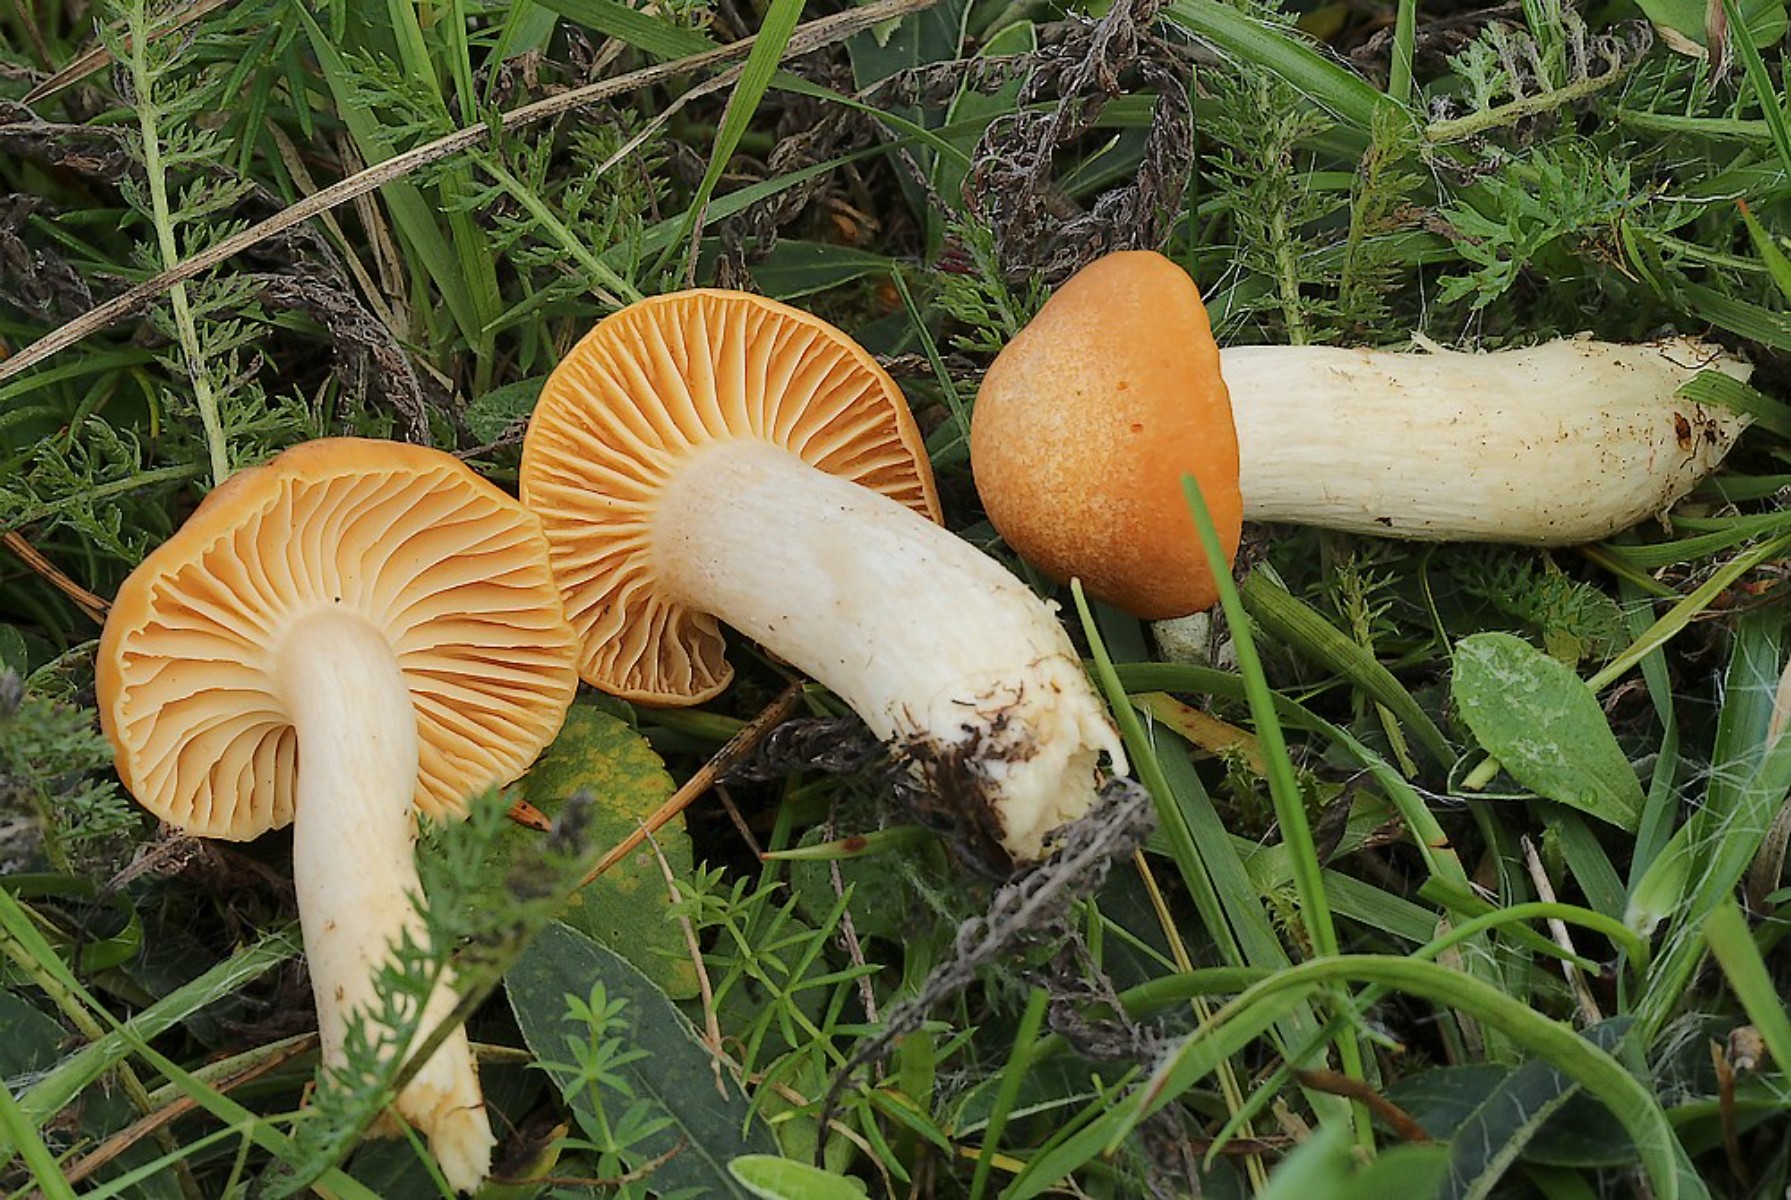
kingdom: Fungi
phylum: Basidiomycota
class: Agaricomycetes
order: Agaricales
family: Hygrophoraceae
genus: Cuphophyllus
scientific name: Cuphophyllus pratensis
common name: eng-vokshat
